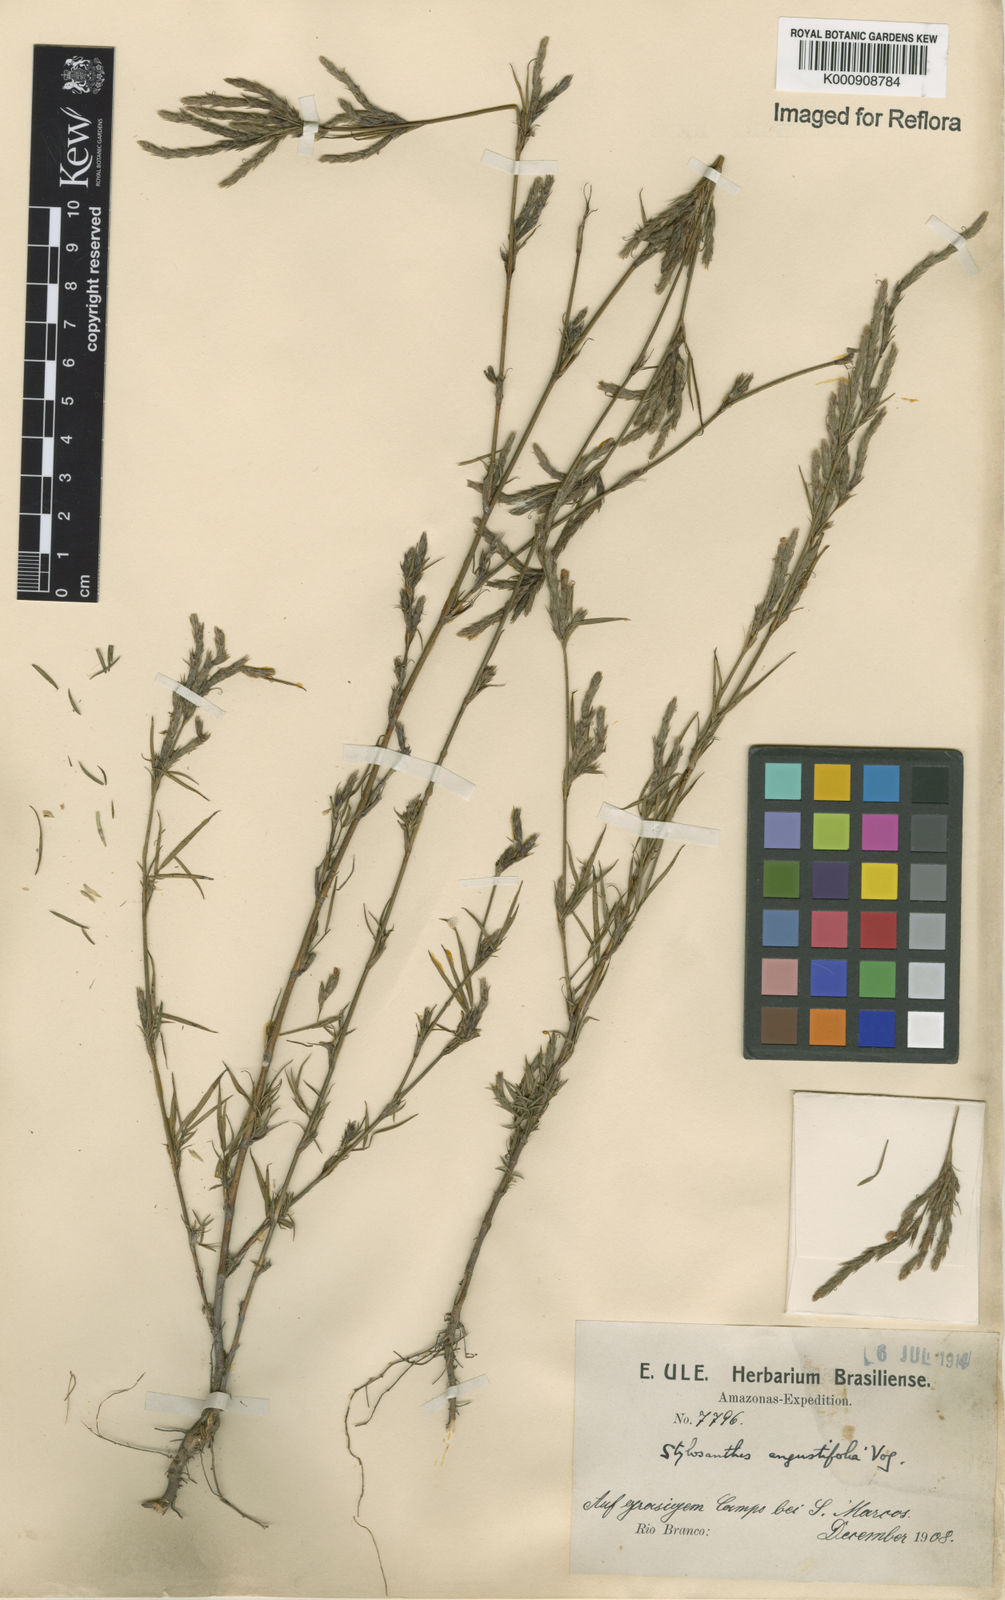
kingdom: Plantae
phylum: Tracheophyta
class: Magnoliopsida
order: Fabales
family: Fabaceae
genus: Stylosanthes
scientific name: Stylosanthes angustifolia
